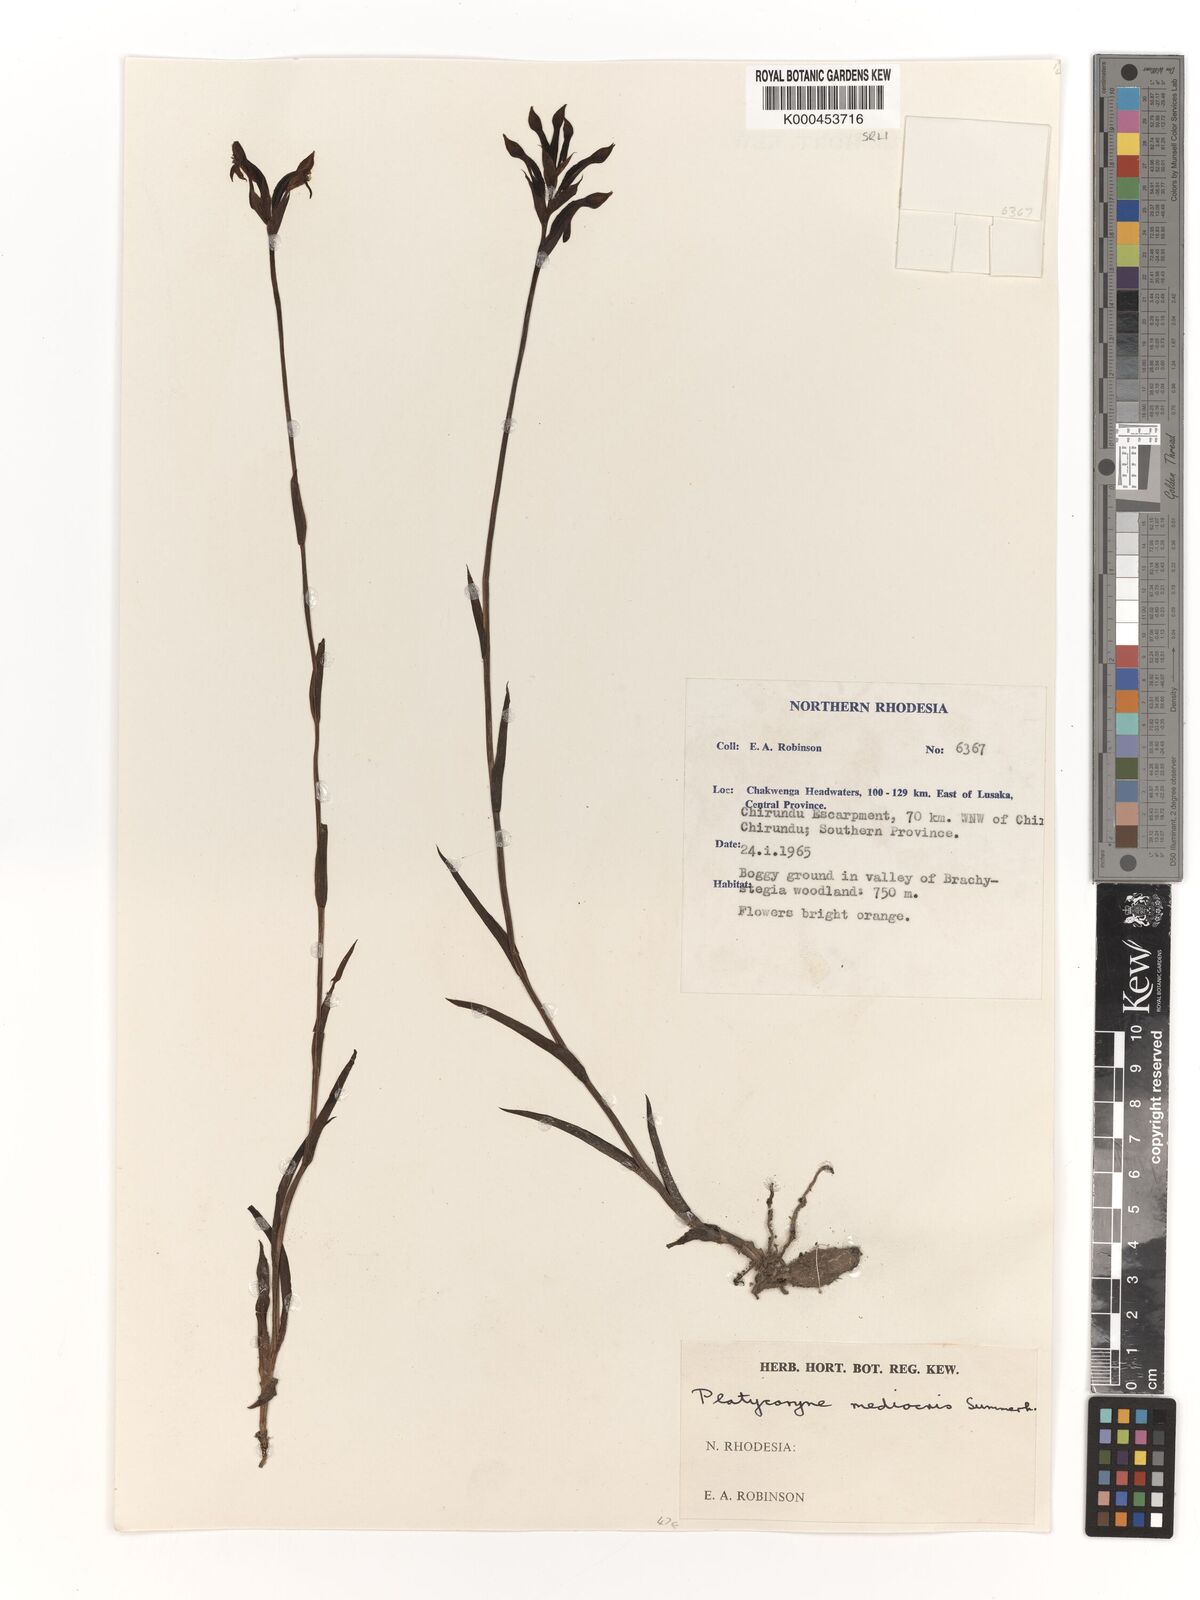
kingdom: Plantae
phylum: Tracheophyta
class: Liliopsida
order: Asparagales
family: Orchidaceae
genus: Platycoryne
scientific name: Platycoryne mediocris
